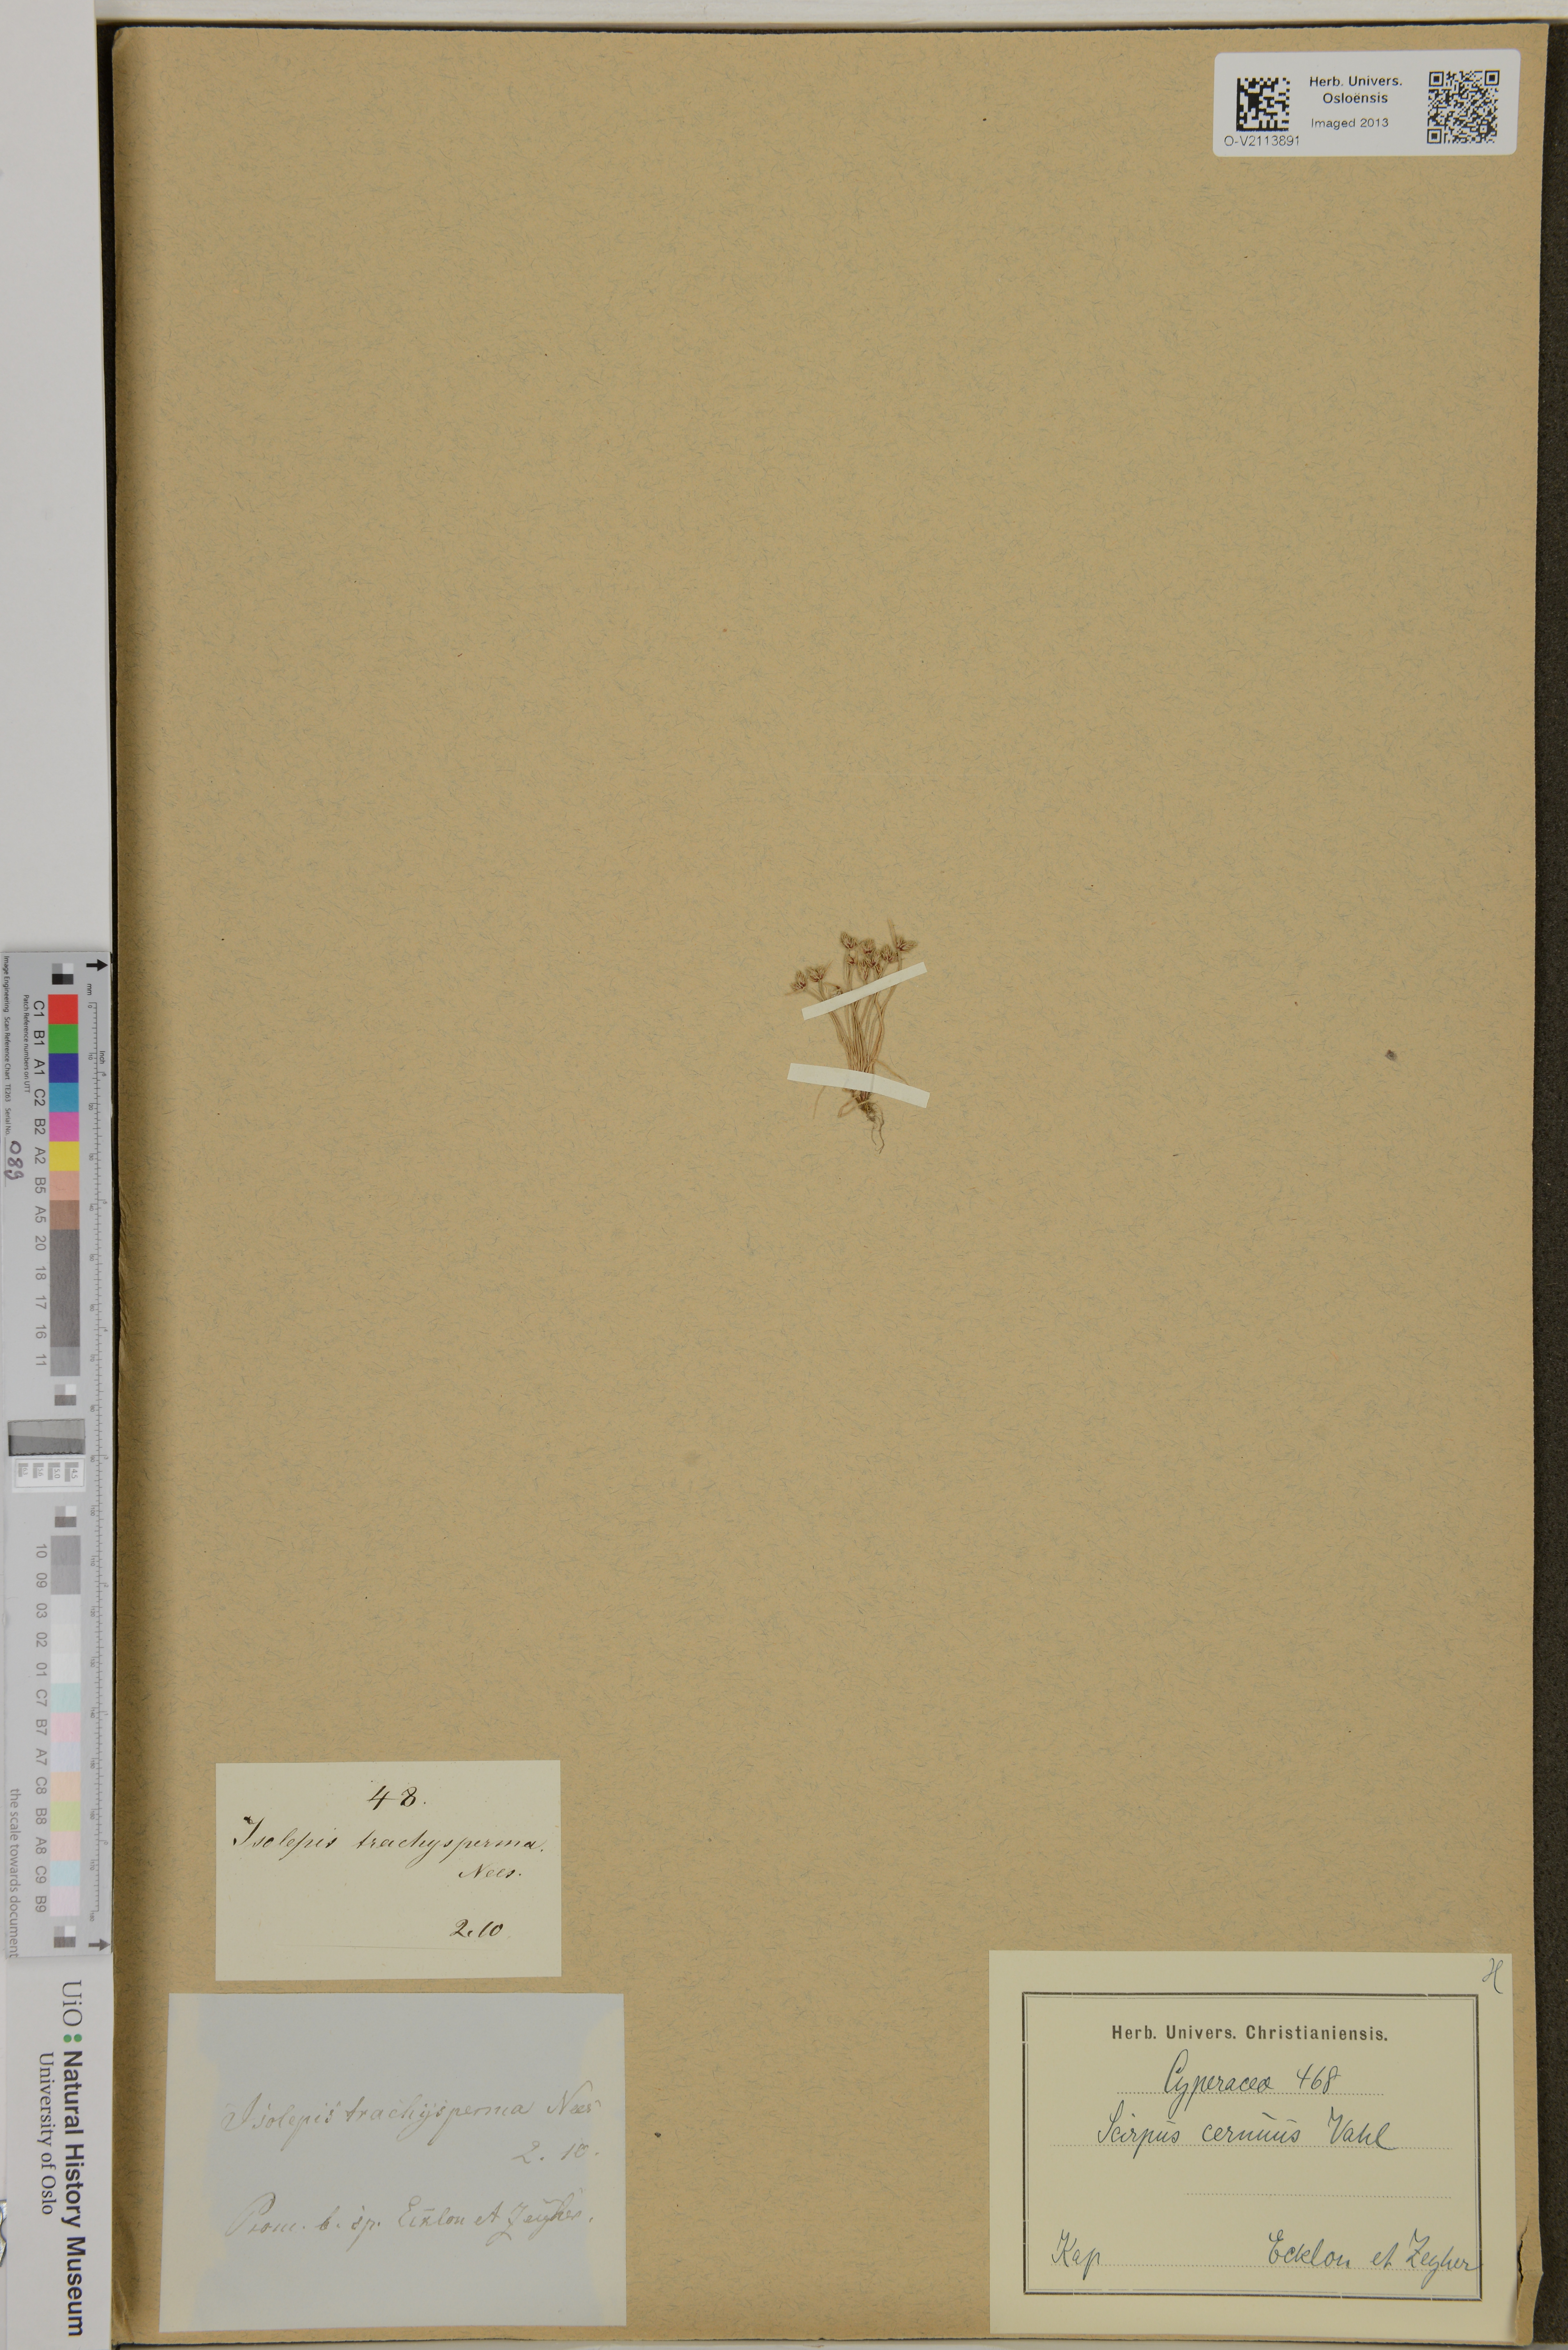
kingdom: Plantae
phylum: Tracheophyta
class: Liliopsida
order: Poales
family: Cyperaceae
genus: Isolepis
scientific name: Isolepis cernua
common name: Slender club-rush
